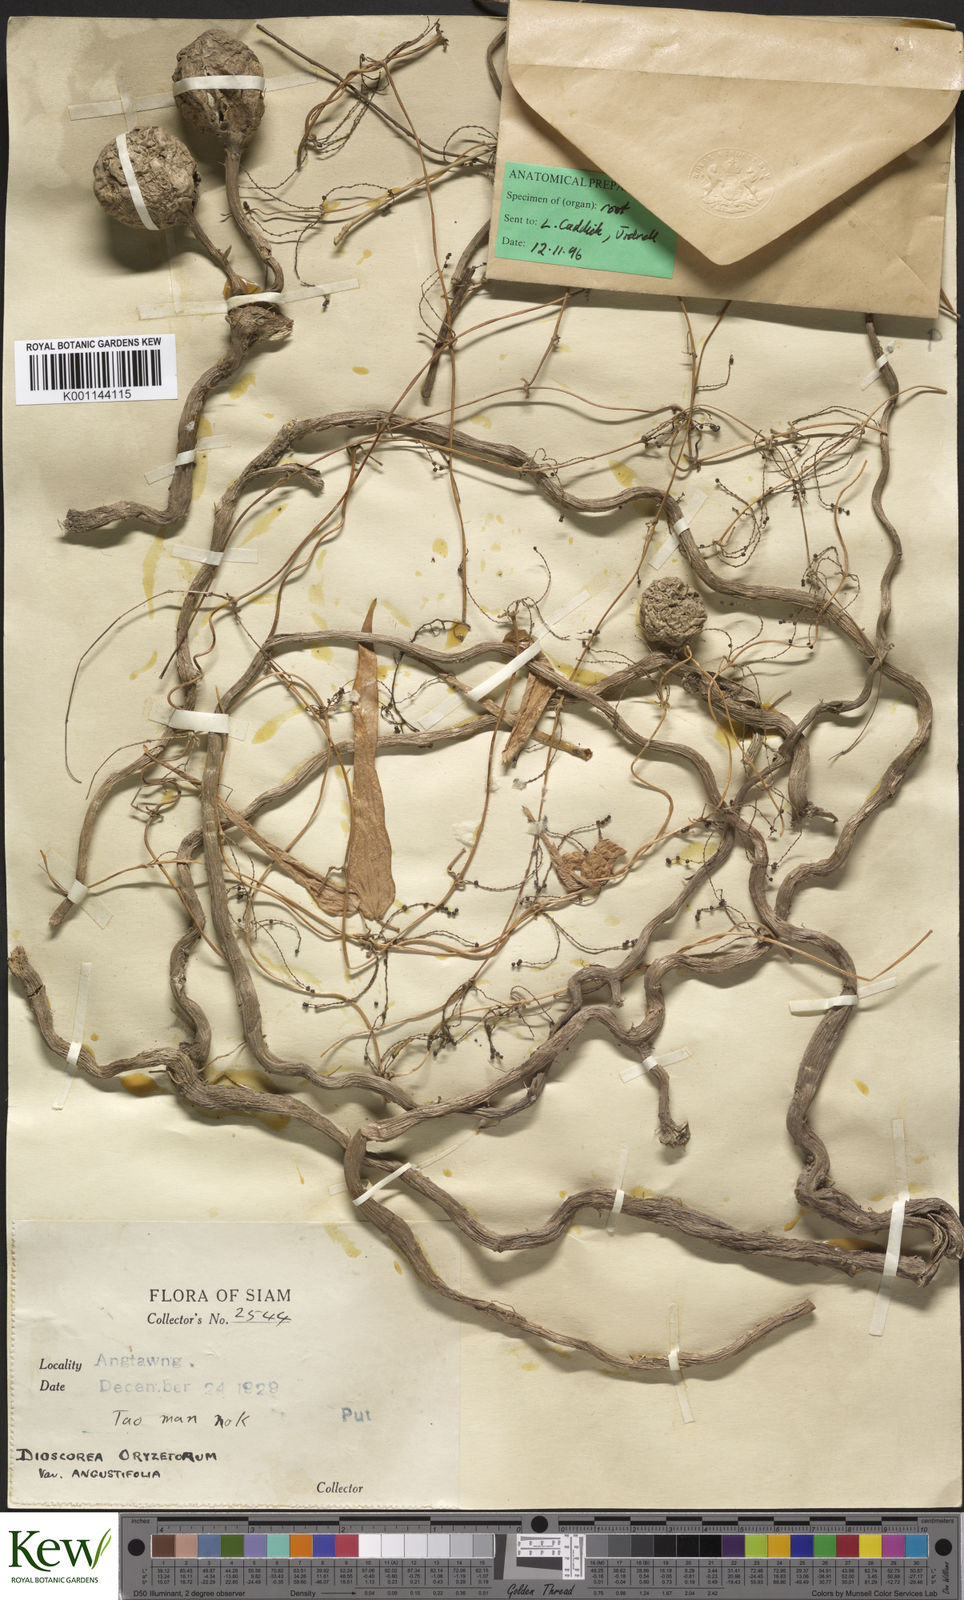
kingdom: Plantae
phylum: Tracheophyta
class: Liliopsida
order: Dioscoreales
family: Dioscoreaceae
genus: Dioscorea
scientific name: Dioscorea oryzetorum
